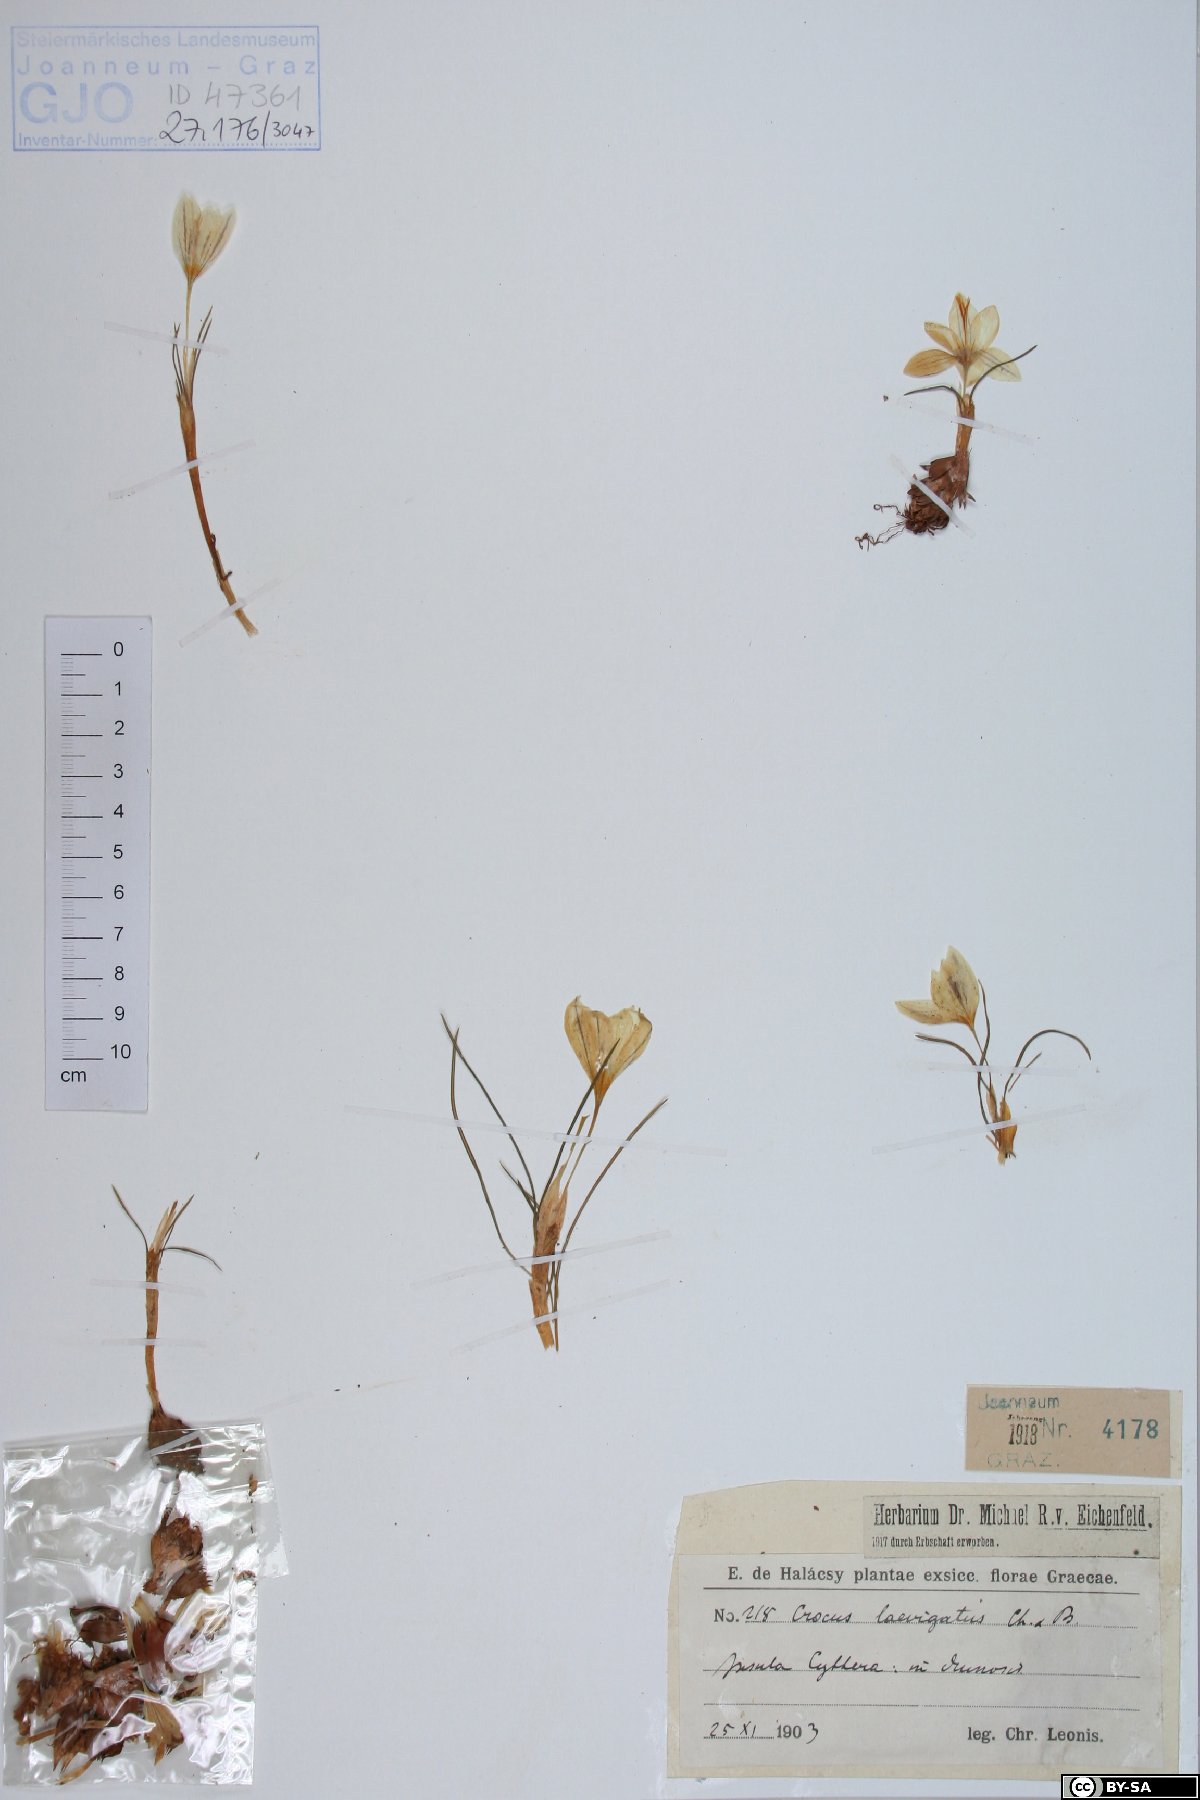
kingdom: Plantae
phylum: Tracheophyta
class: Liliopsida
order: Asparagales
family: Iridaceae
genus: Crocus
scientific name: Crocus laevigatus
